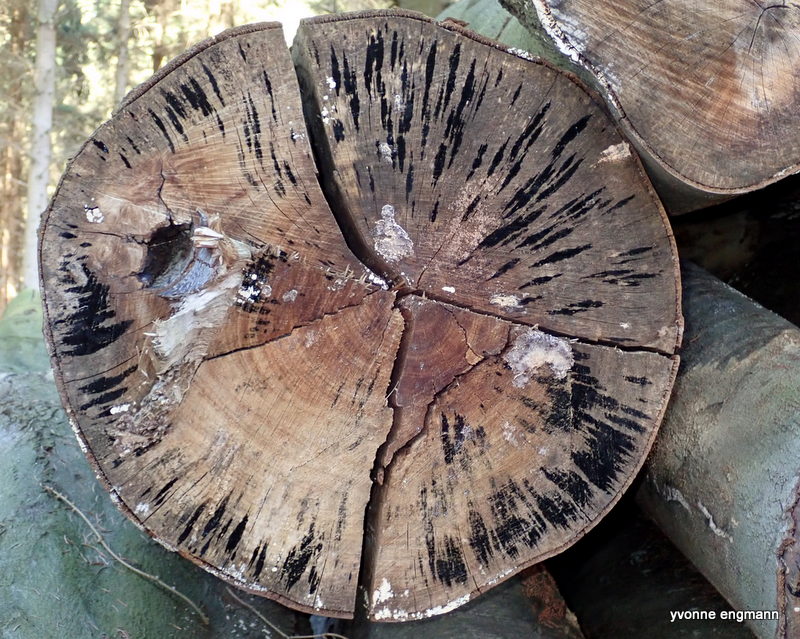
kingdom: Fungi
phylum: Ascomycota
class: Leotiomycetes
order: Helotiales
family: Helotiaceae
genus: Bispora
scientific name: Bispora pallescens
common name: måtte-snitskive
